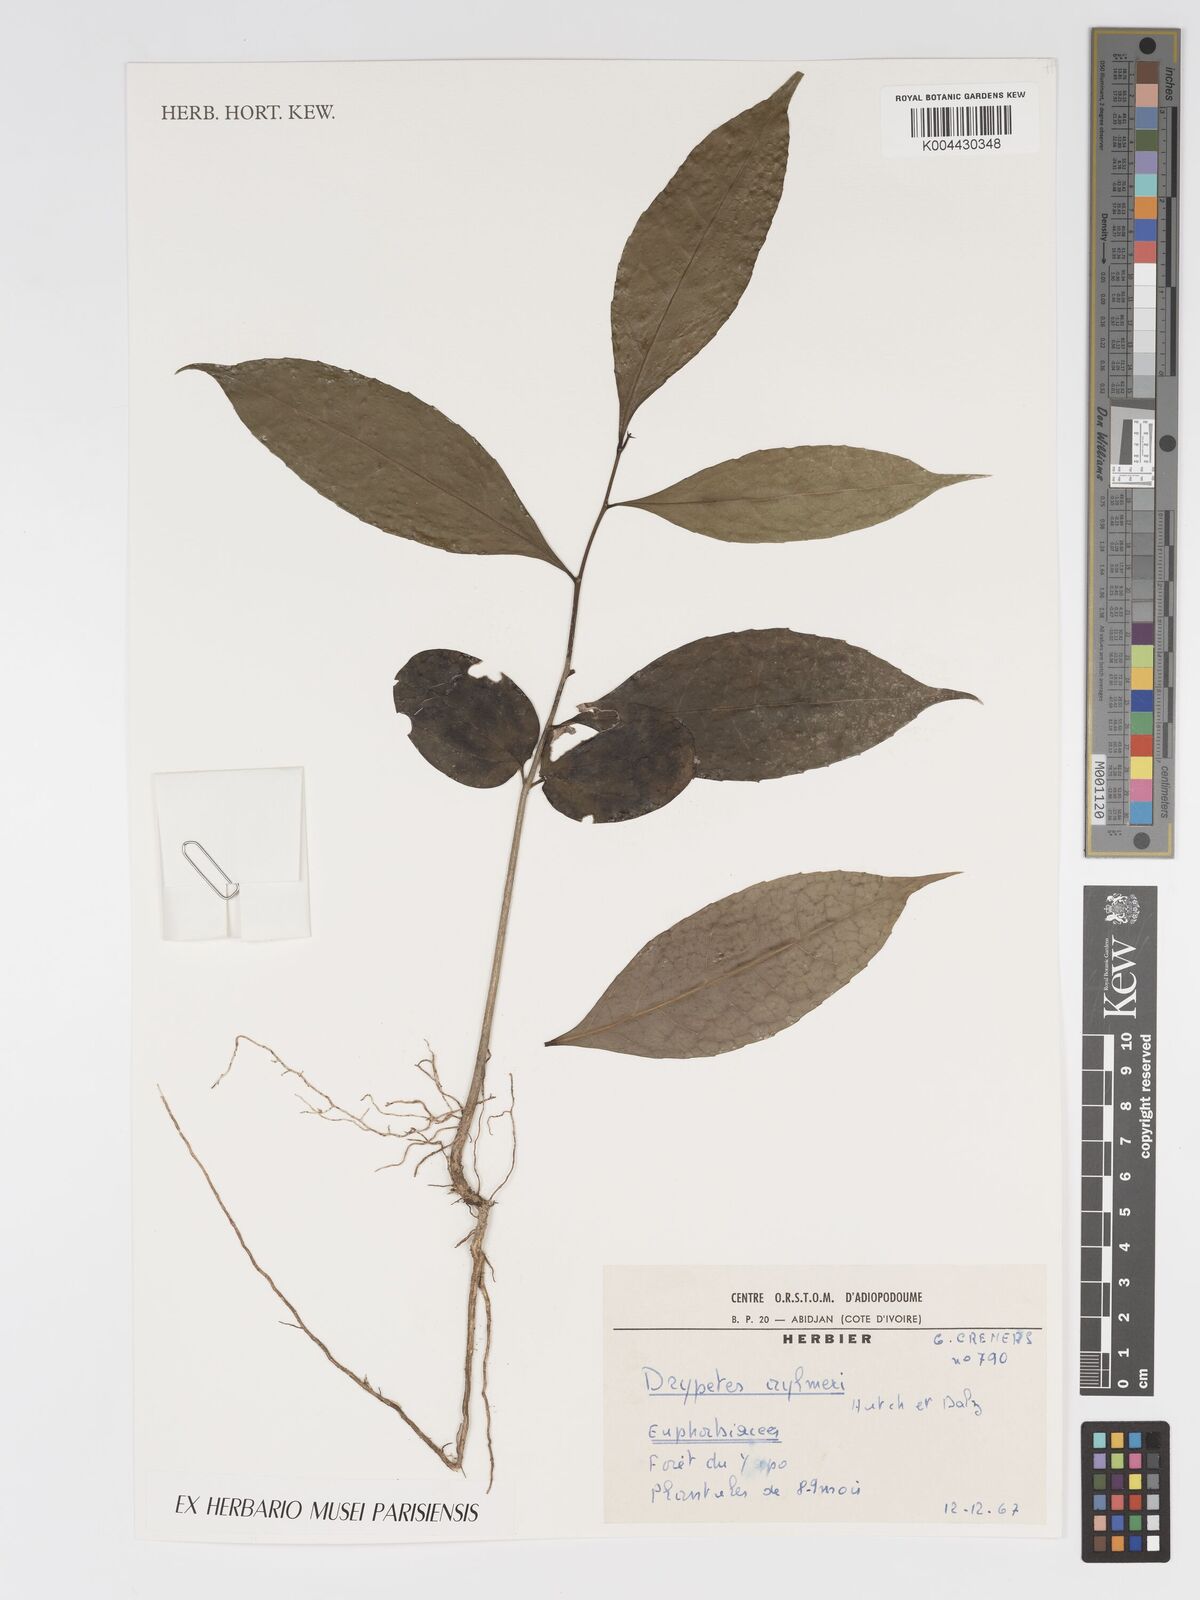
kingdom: Plantae
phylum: Tracheophyta
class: Magnoliopsida
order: Malpighiales
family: Putranjivaceae
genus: Drypetes
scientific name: Drypetes aylmeri
